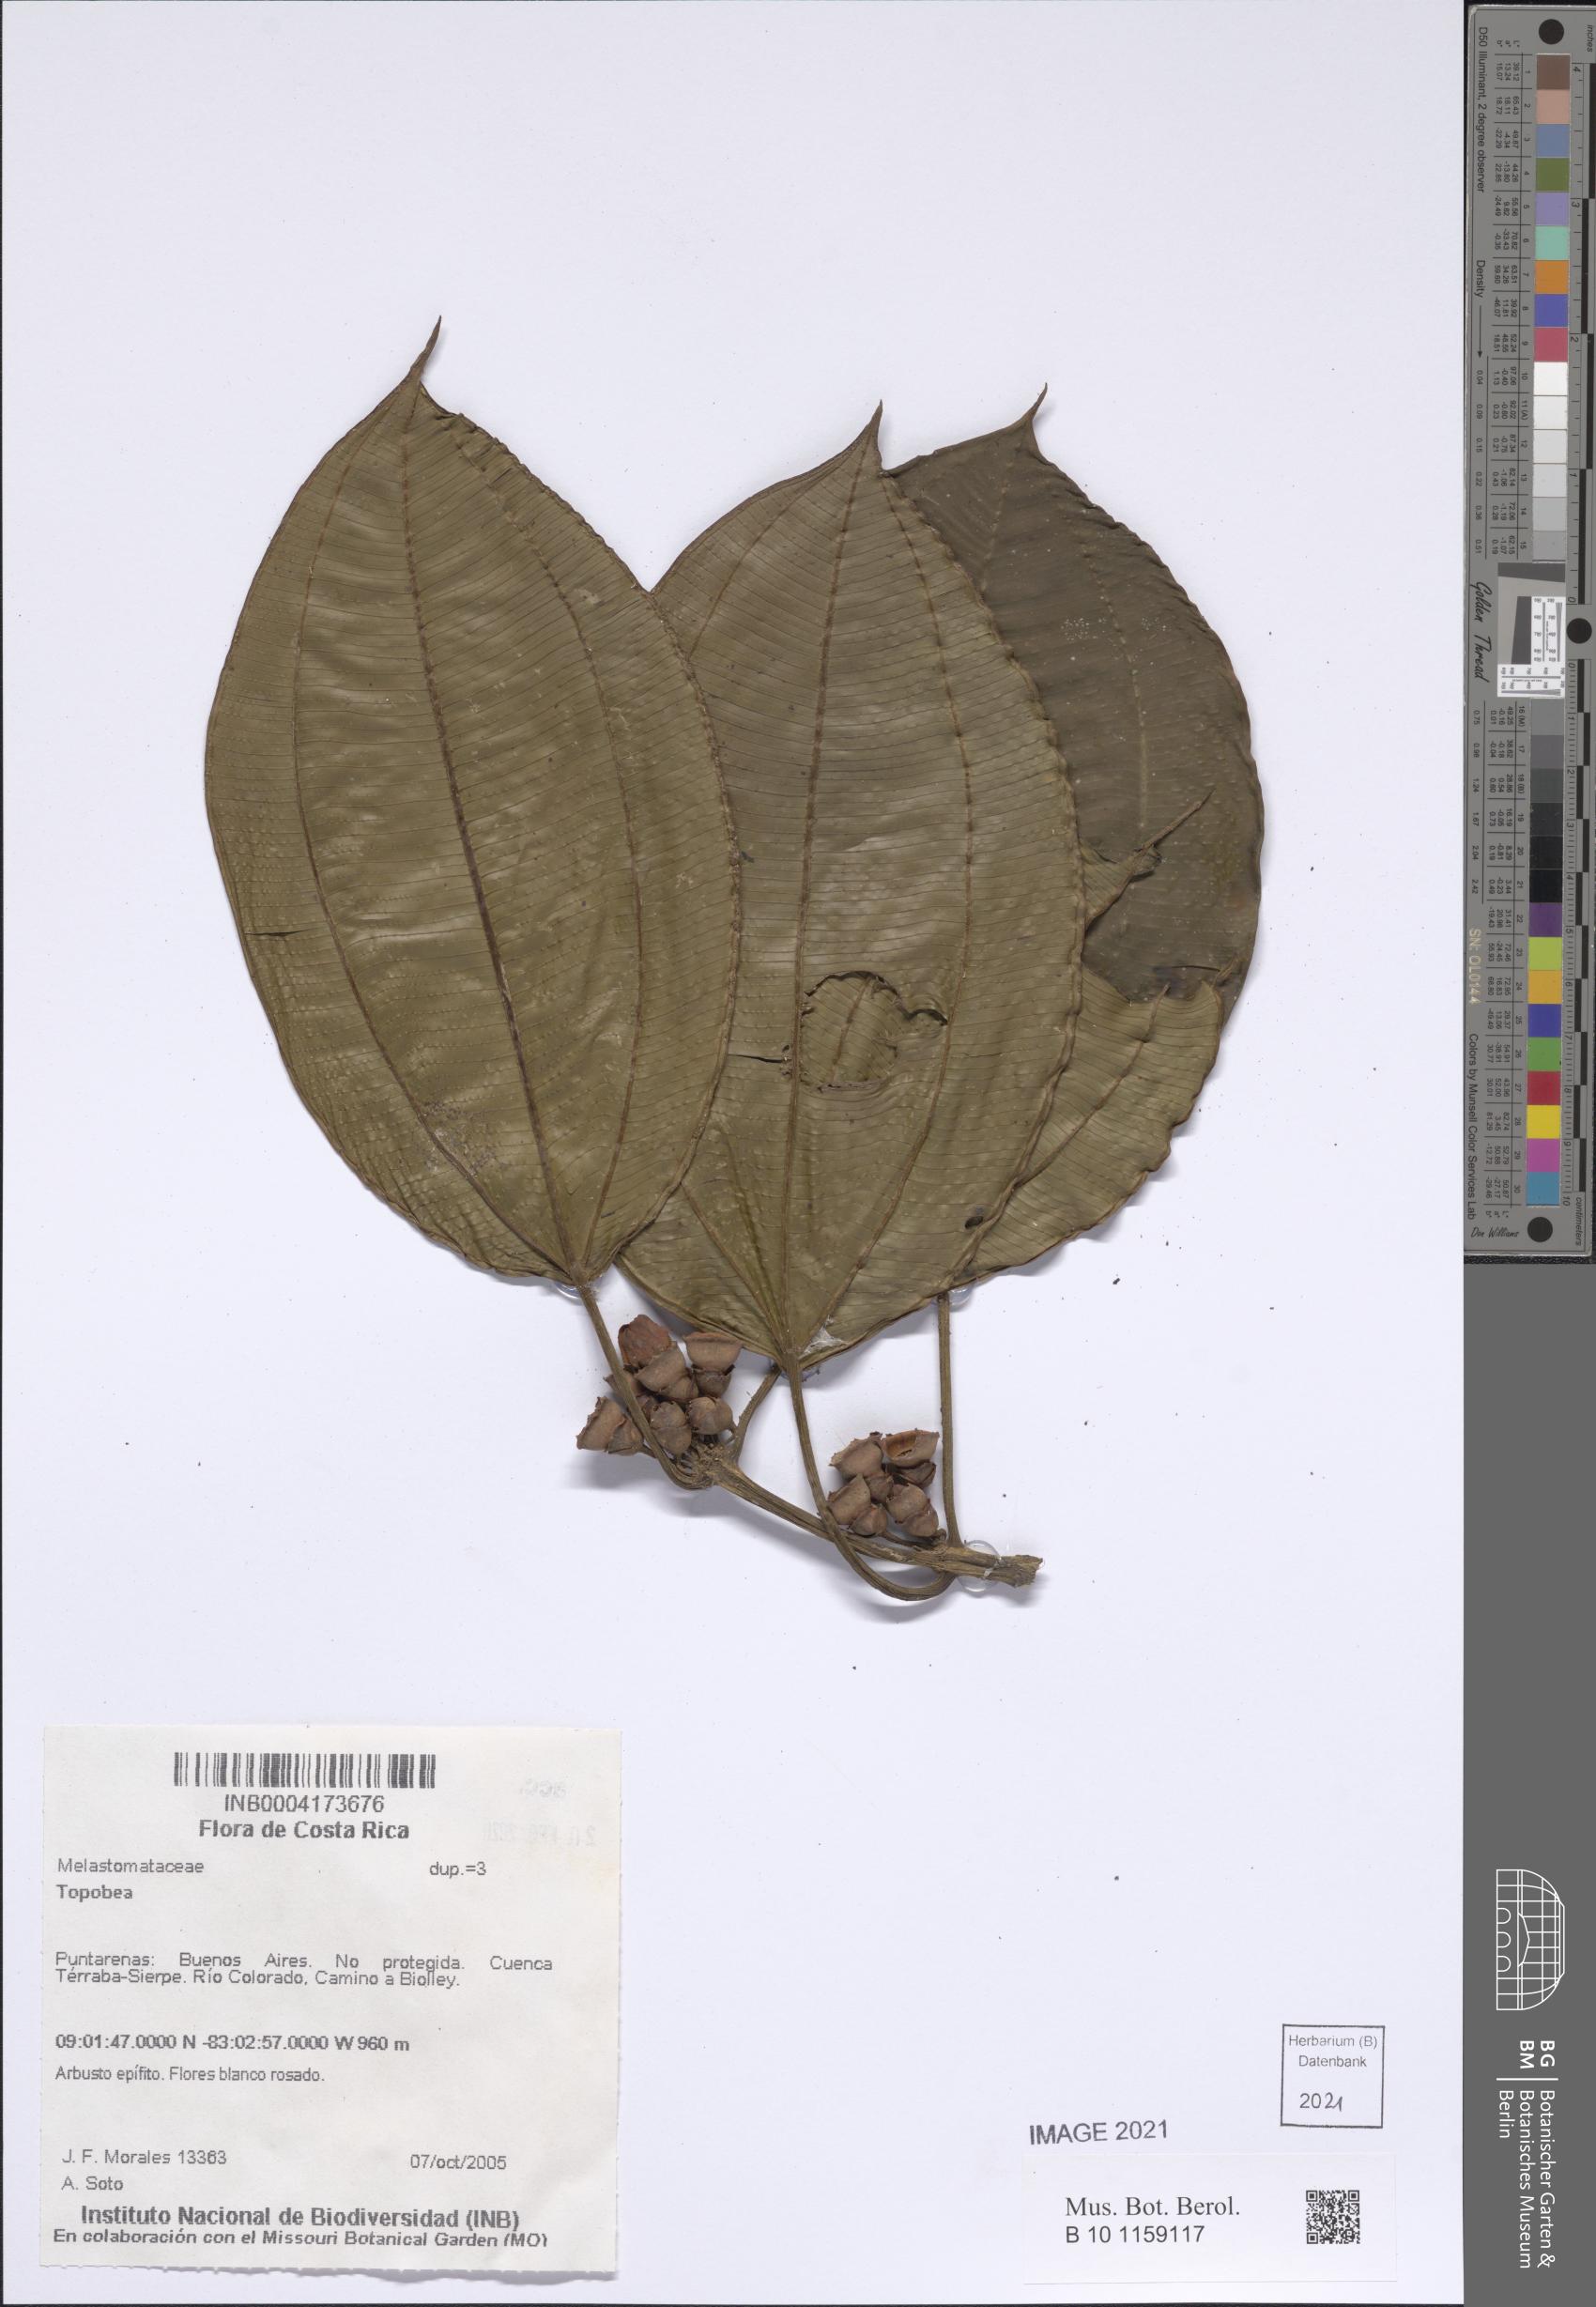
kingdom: Plantae
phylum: Tracheophyta
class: Magnoliopsida
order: Myrtales
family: Melastomataceae
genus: Blakea
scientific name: Blakea
